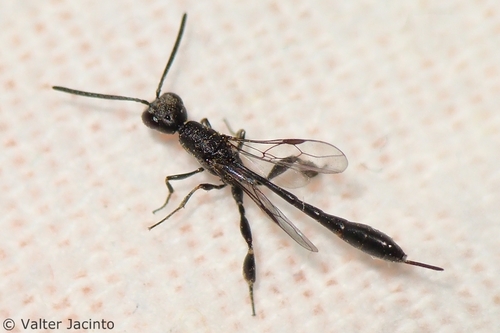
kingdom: Animalia
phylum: Arthropoda
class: Insecta
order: Hymenoptera
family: Gasteruptiidae
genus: Gasteruption
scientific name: Gasteruption assectator
